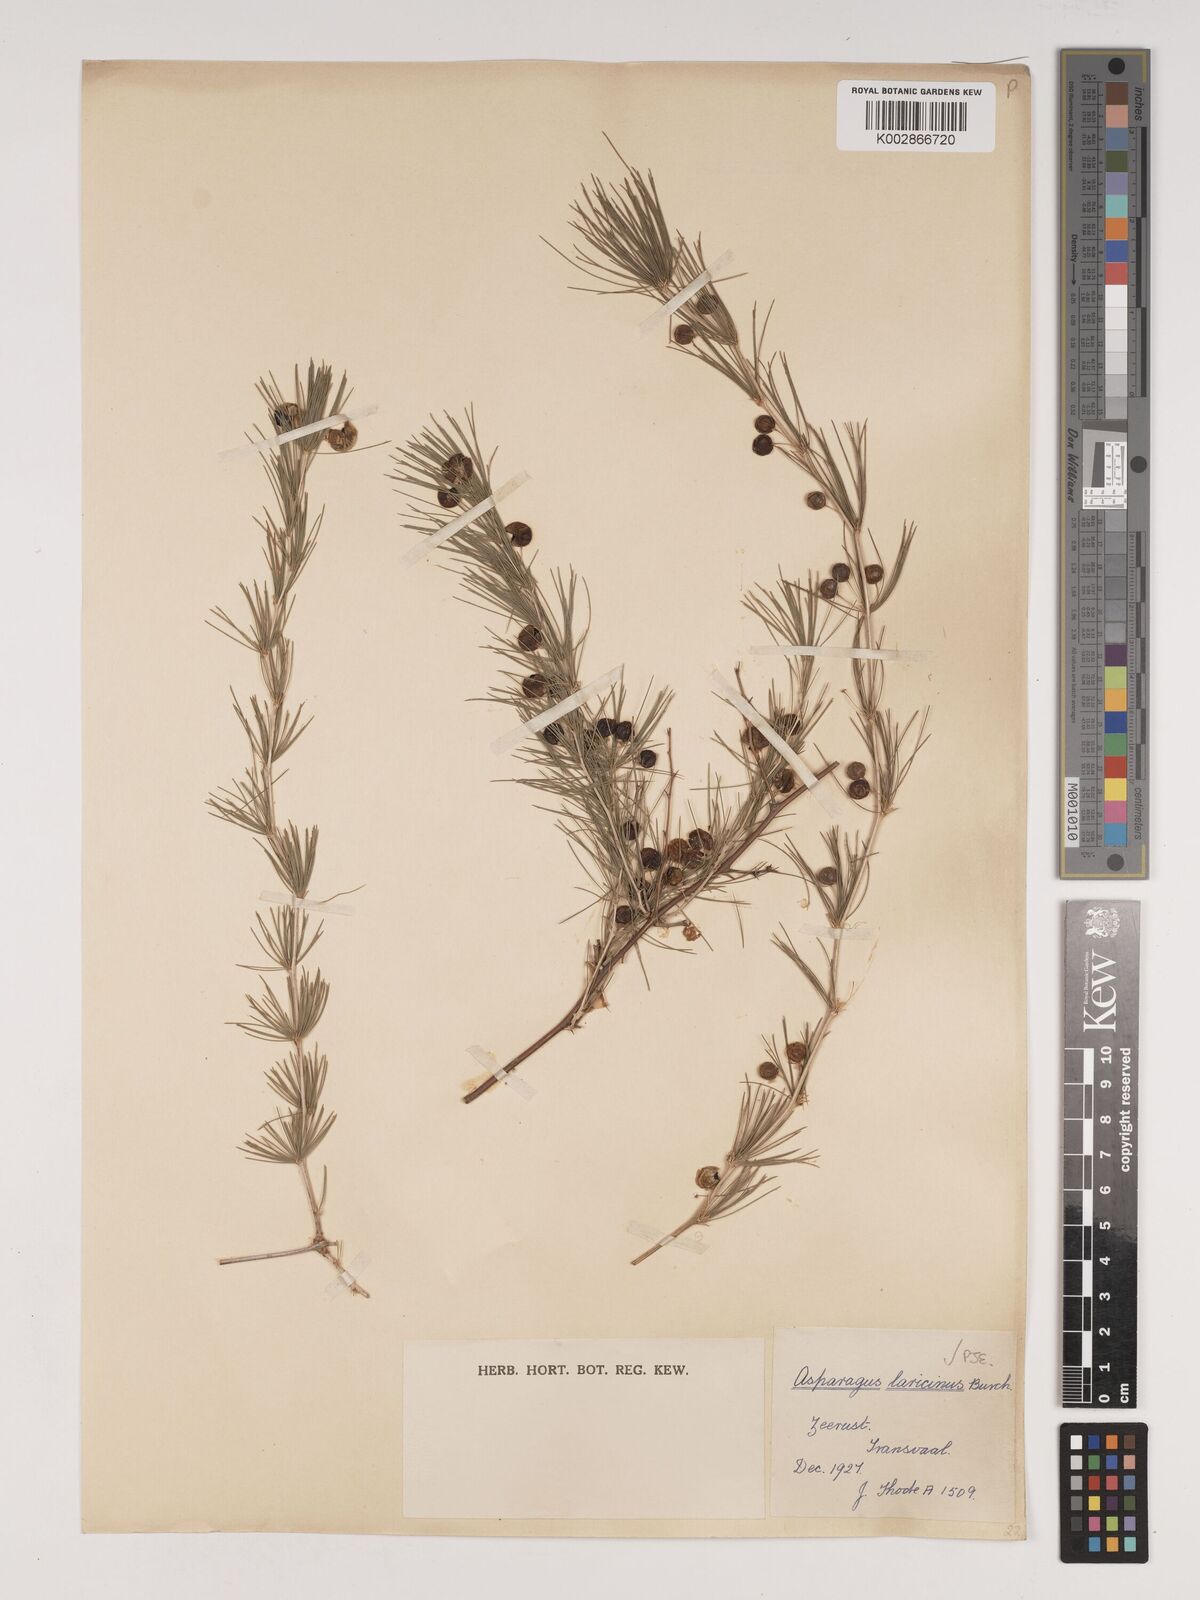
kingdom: Plantae
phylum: Tracheophyta
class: Liliopsida
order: Asparagales
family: Asparagaceae
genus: Asparagus
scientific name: Asparagus laricinus
